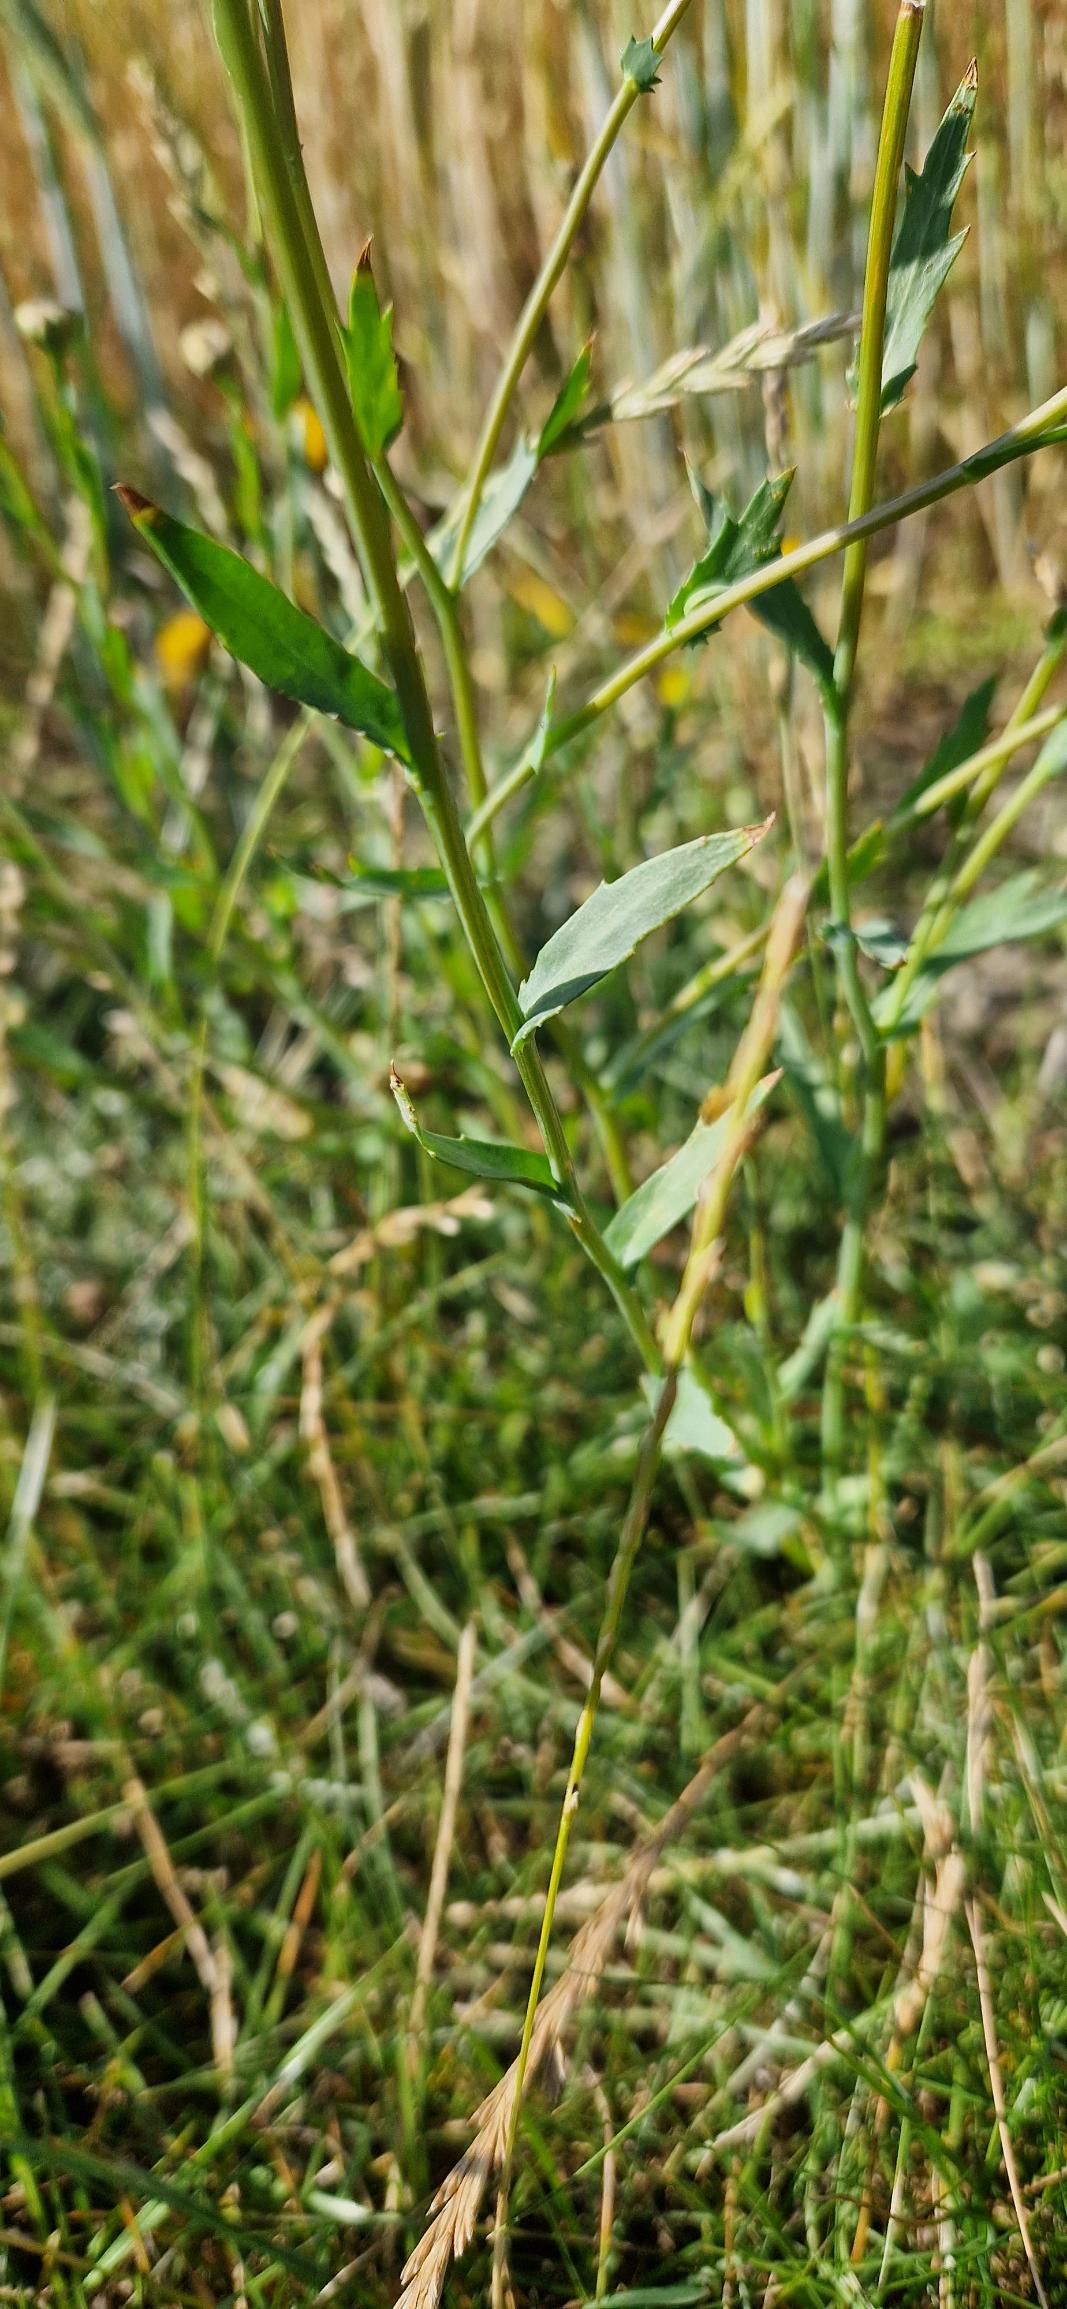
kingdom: Plantae
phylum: Tracheophyta
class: Magnoliopsida
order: Asterales
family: Asteraceae
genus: Glebionis
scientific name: Glebionis segetum
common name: Gul okseøje
